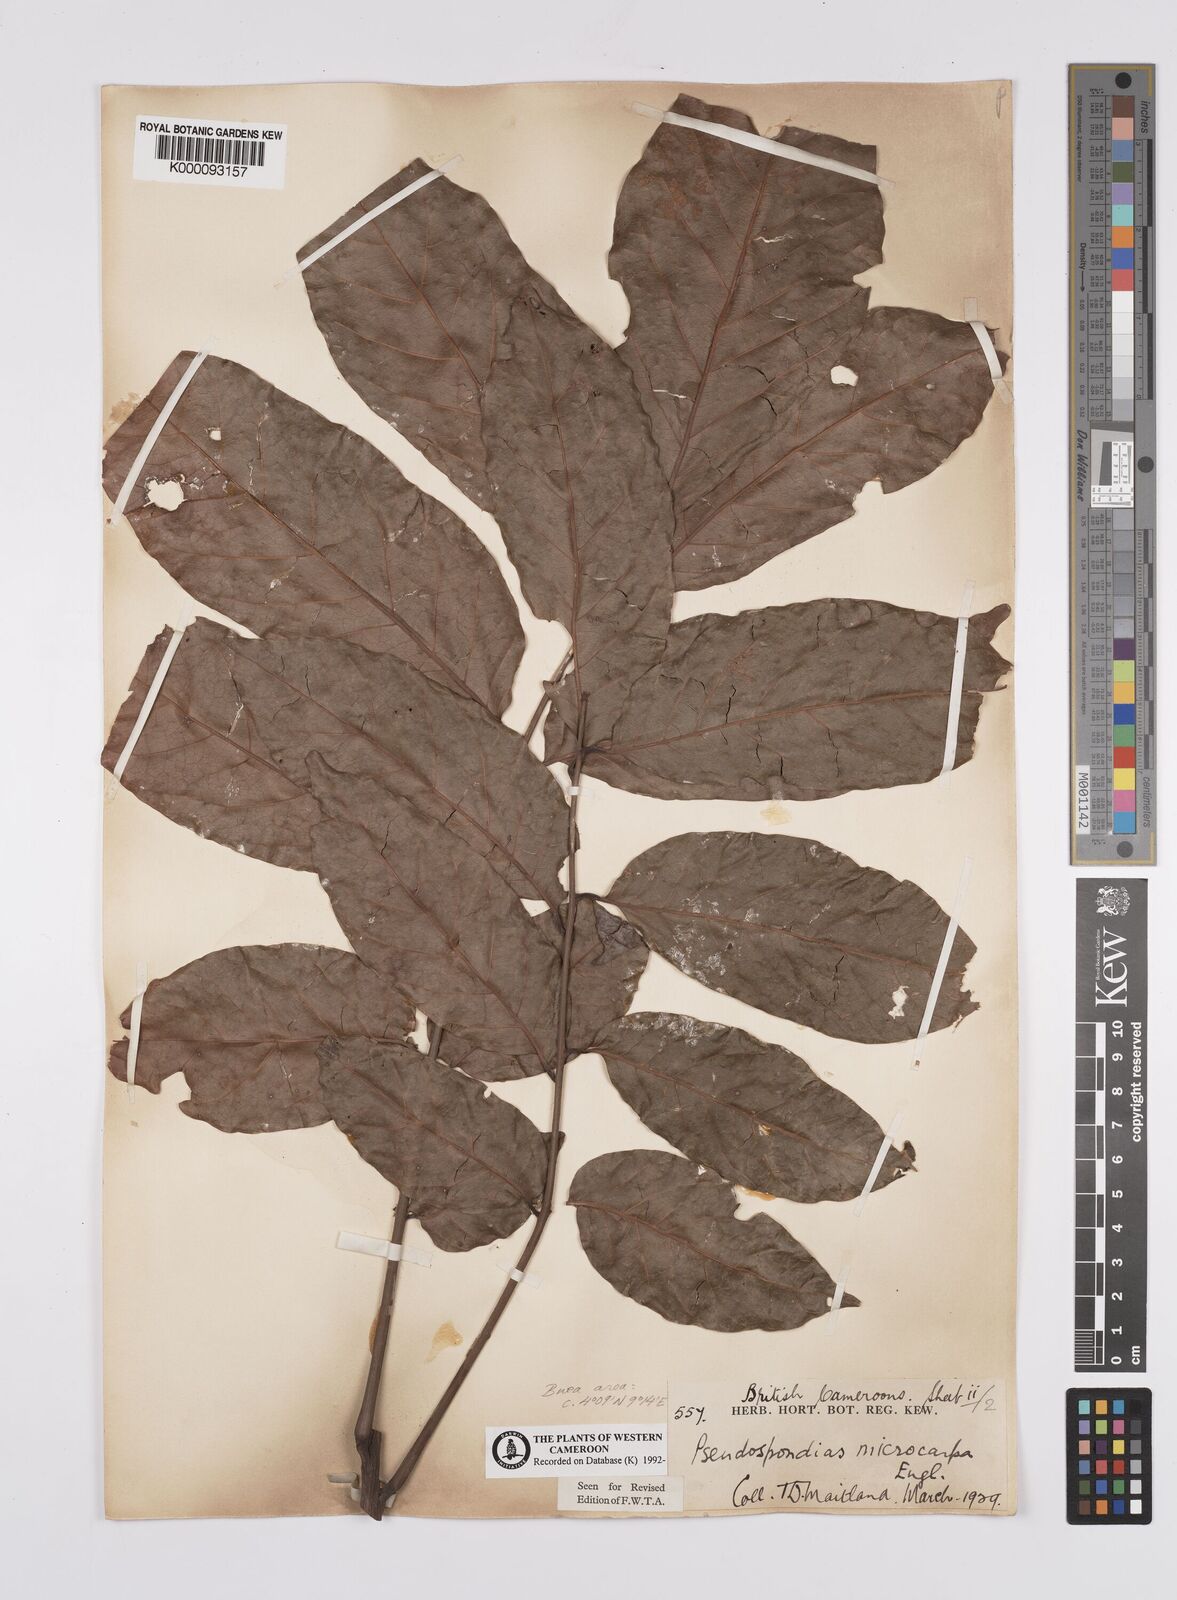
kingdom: Plantae
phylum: Tracheophyta
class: Magnoliopsida
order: Sapindales
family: Anacardiaceae
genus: Pseudospondias
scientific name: Pseudospondias microcarpa
